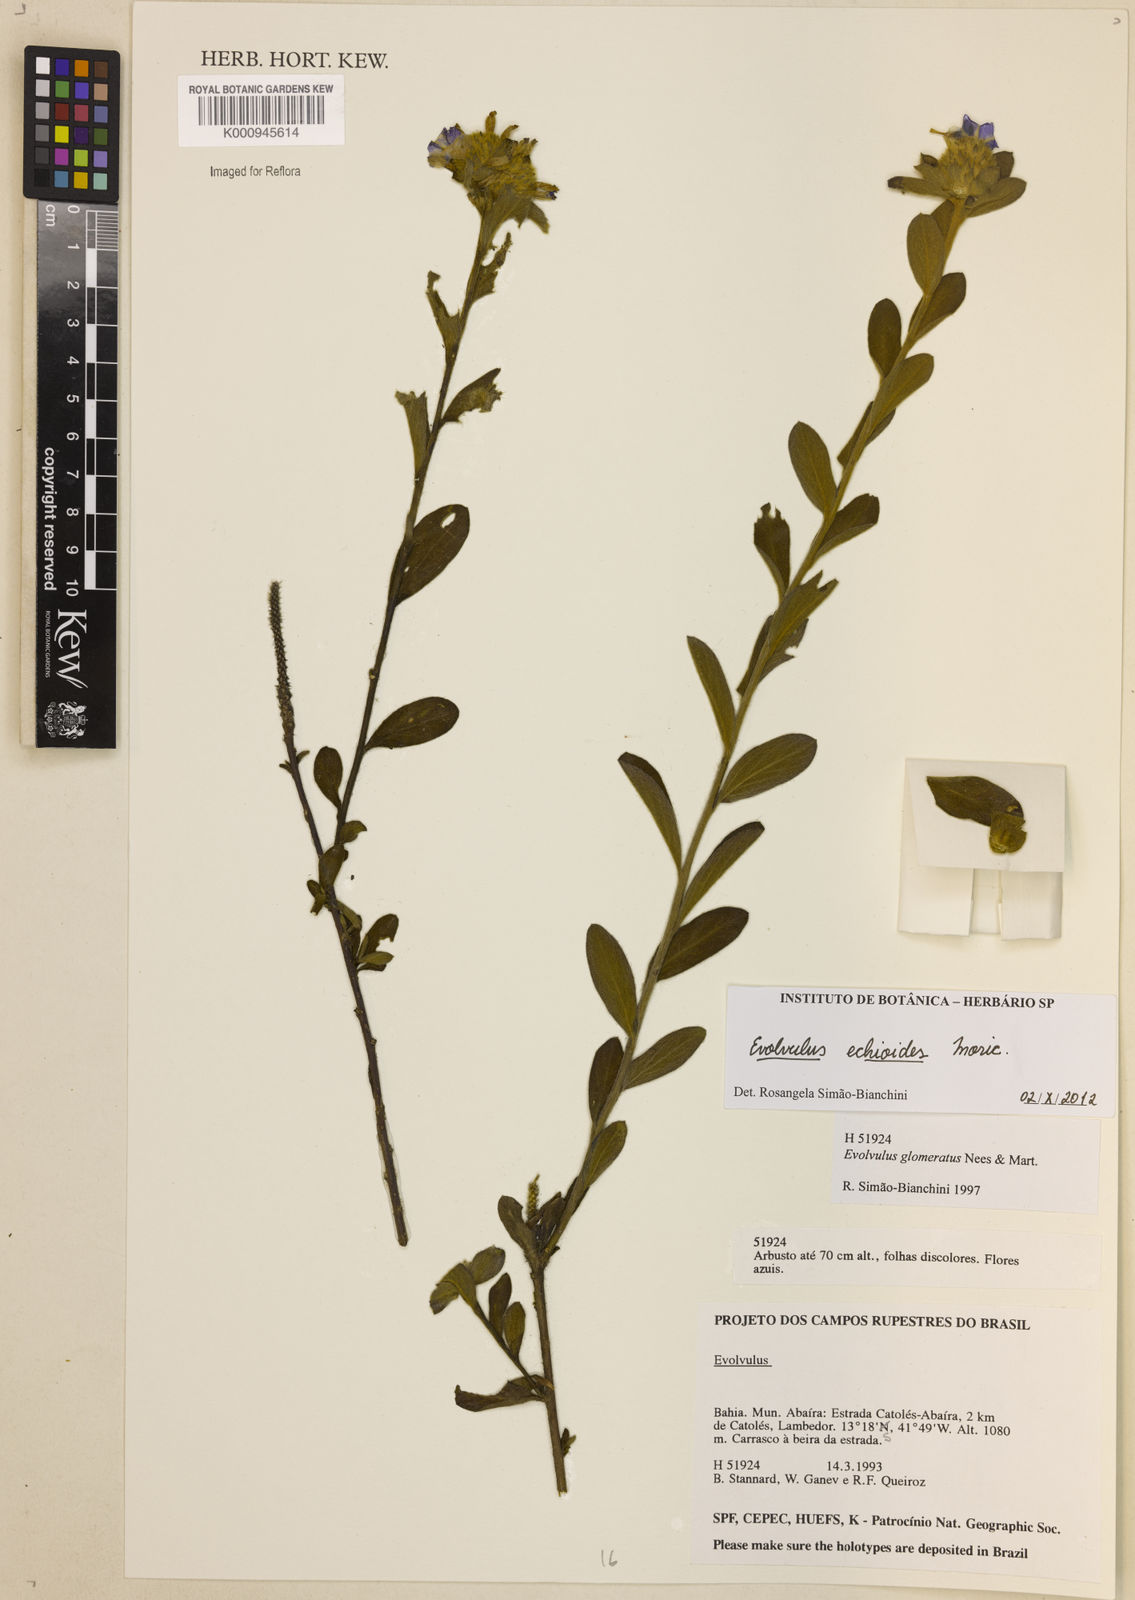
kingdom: Plantae
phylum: Tracheophyta
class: Magnoliopsida
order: Solanales
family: Convolvulaceae
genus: Evolvulus
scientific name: Evolvulus echioides
